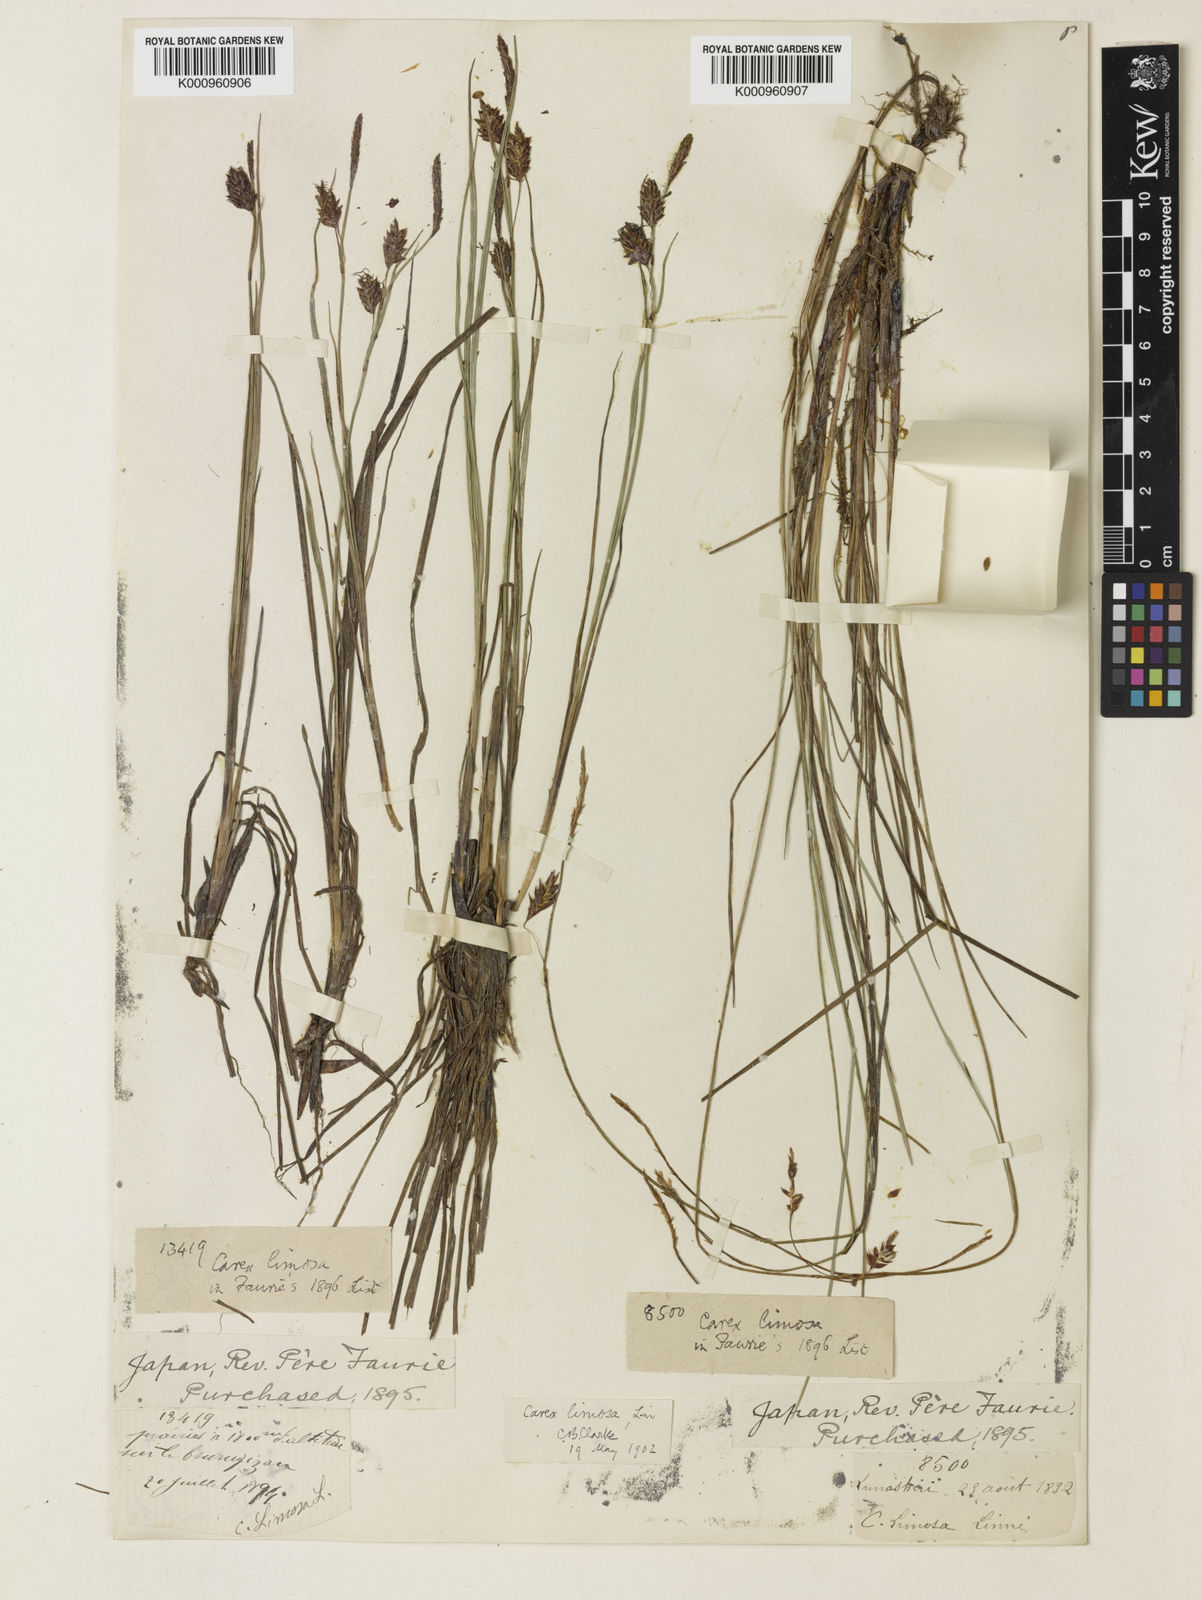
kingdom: Plantae
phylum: Tracheophyta
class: Liliopsida
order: Poales
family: Cyperaceae
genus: Carex
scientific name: Carex limosa
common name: Bog sedge
